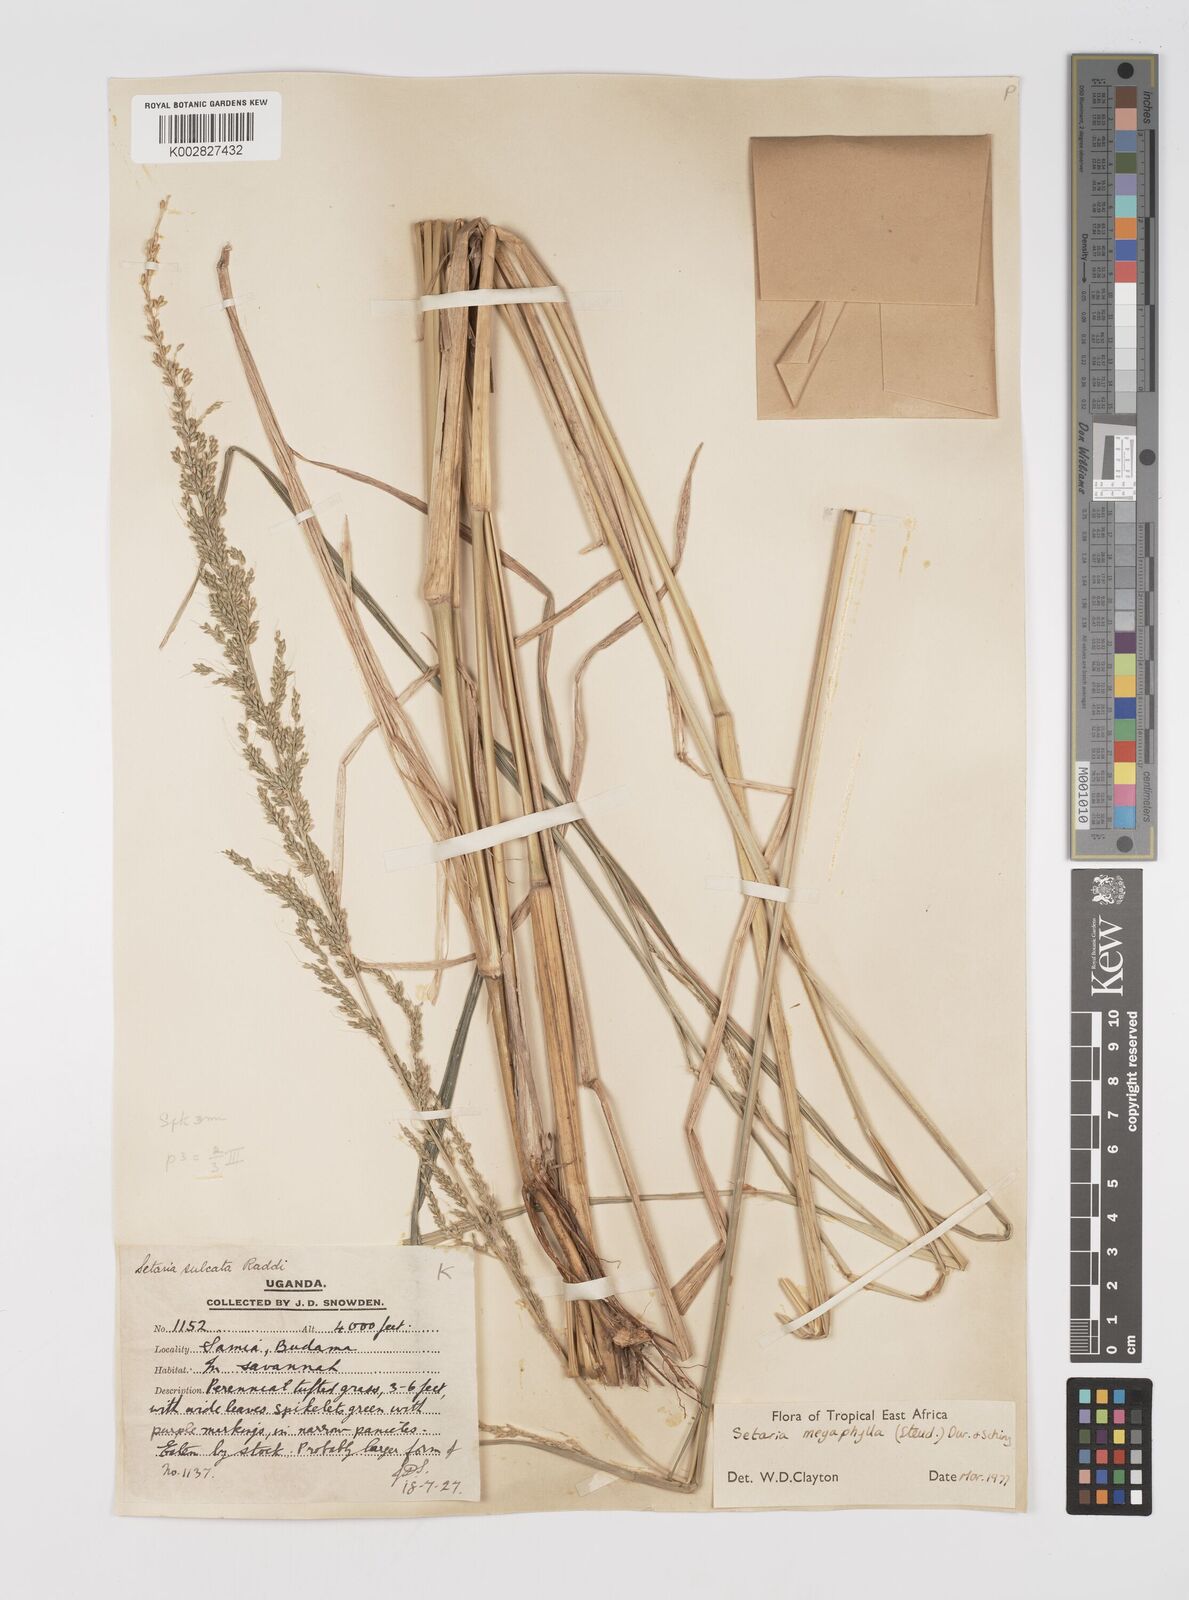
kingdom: Plantae
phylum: Tracheophyta
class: Liliopsida
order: Poales
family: Poaceae
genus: Setaria
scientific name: Setaria megaphylla
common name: Bigleaf bristlegrass
